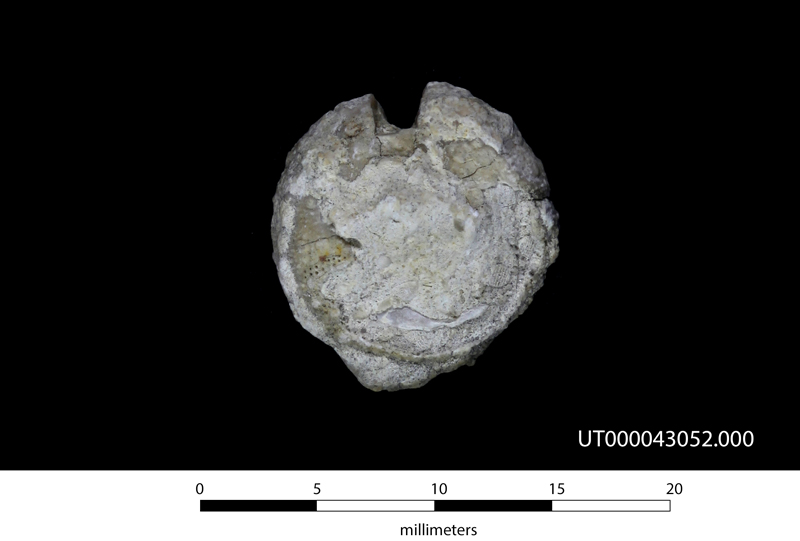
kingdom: Animalia
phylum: Echinodermata
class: Echinoidea
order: Phymosomatoida
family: Emiratiidae
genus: Loriolia
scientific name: Loriolia
